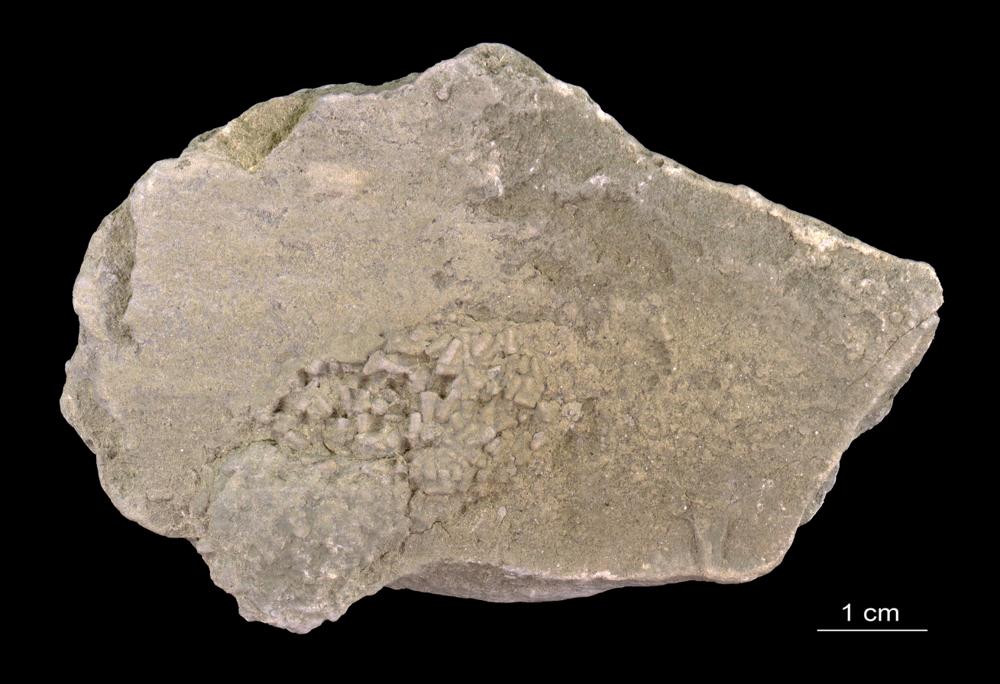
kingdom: Animalia
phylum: Annelida
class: Polychaeta
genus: Volborthella
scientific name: Volborthella tenuis
